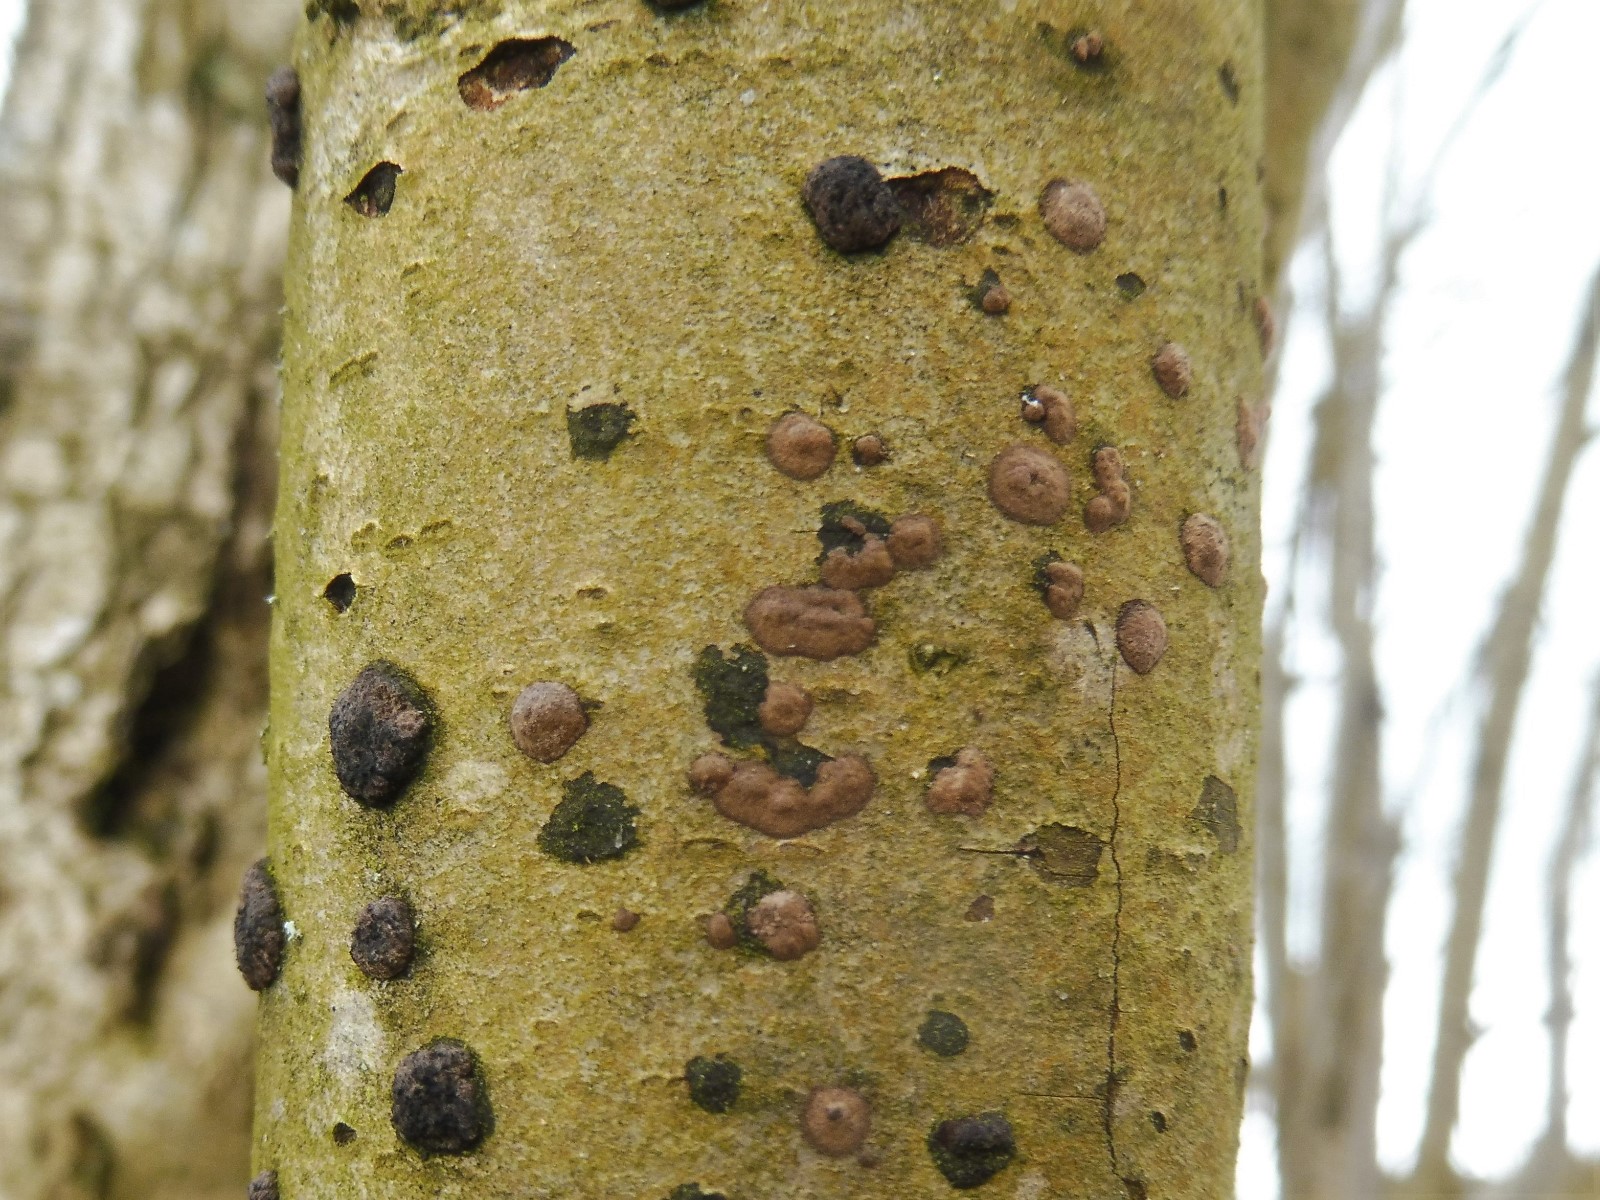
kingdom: Fungi
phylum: Ascomycota
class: Sordariomycetes
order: Xylariales
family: Hypoxylaceae
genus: Hypoxylon
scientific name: Hypoxylon fuscum
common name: kegleformet kulbær
